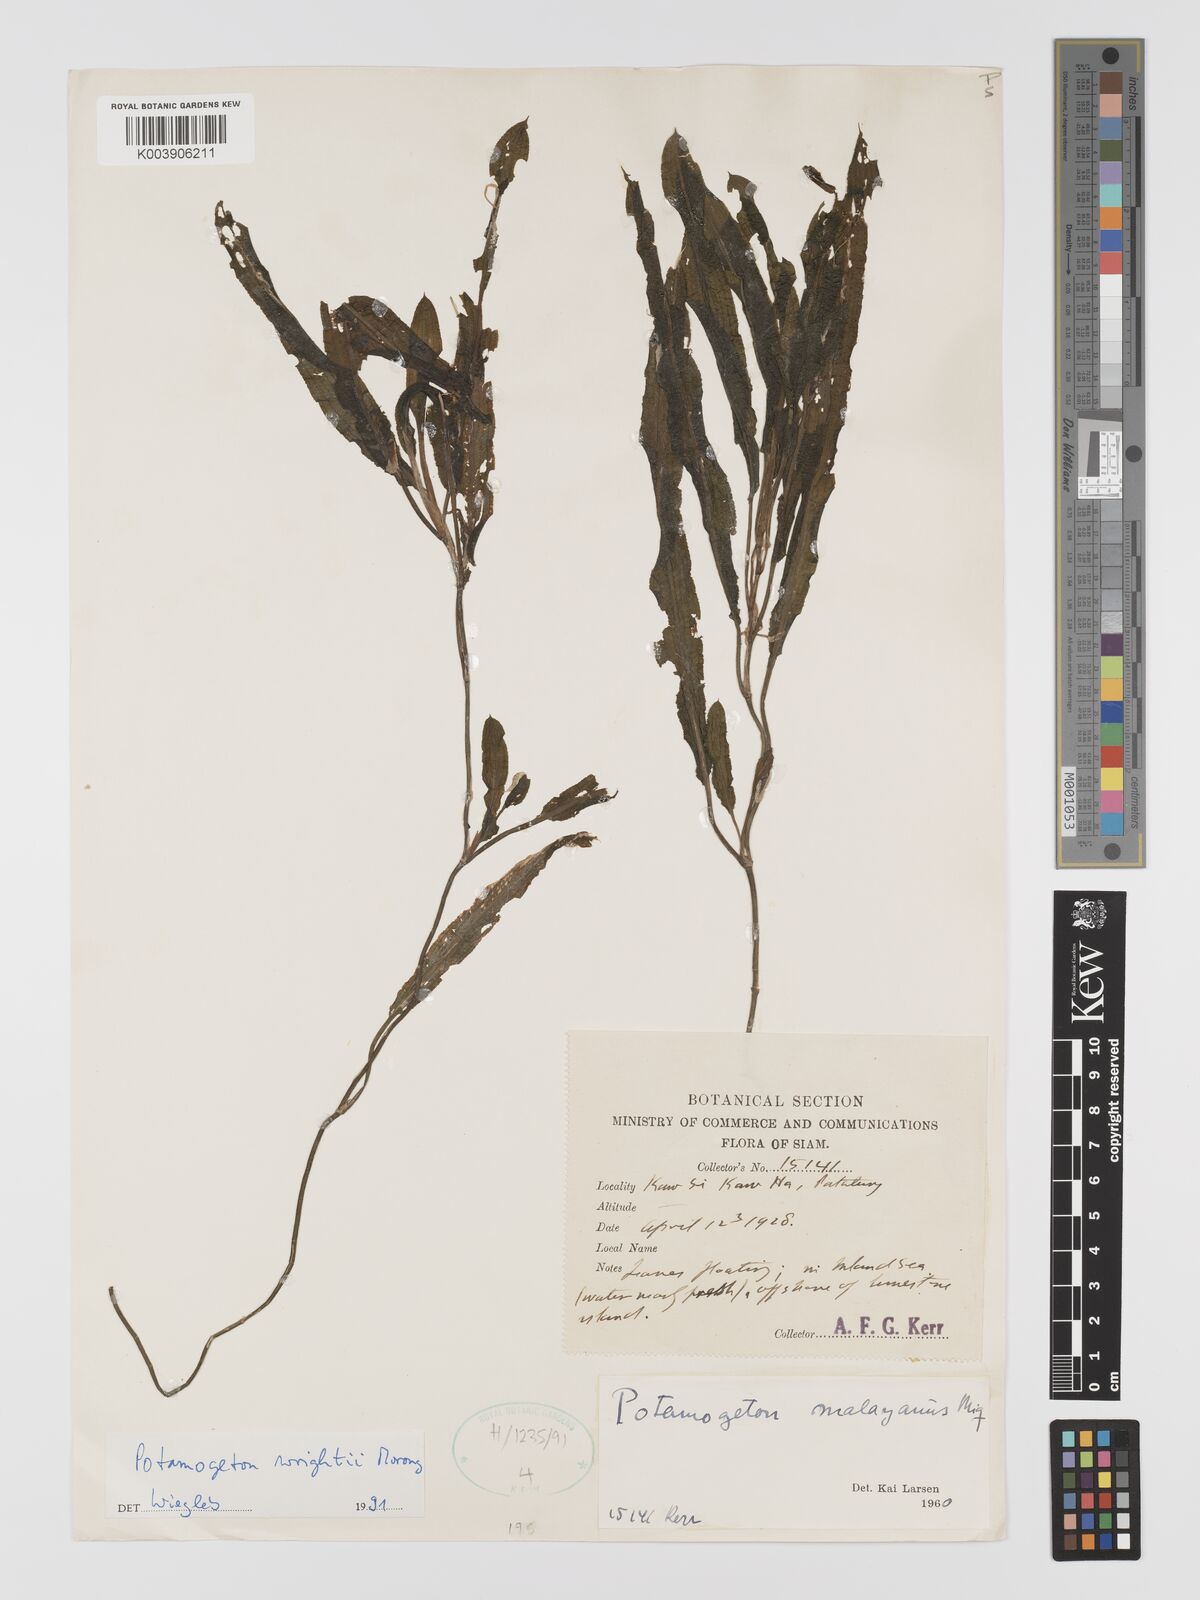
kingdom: Plantae
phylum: Tracheophyta
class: Liliopsida
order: Alismatales
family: Potamogetonaceae
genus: Potamogeton
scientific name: Potamogeton distinctus
